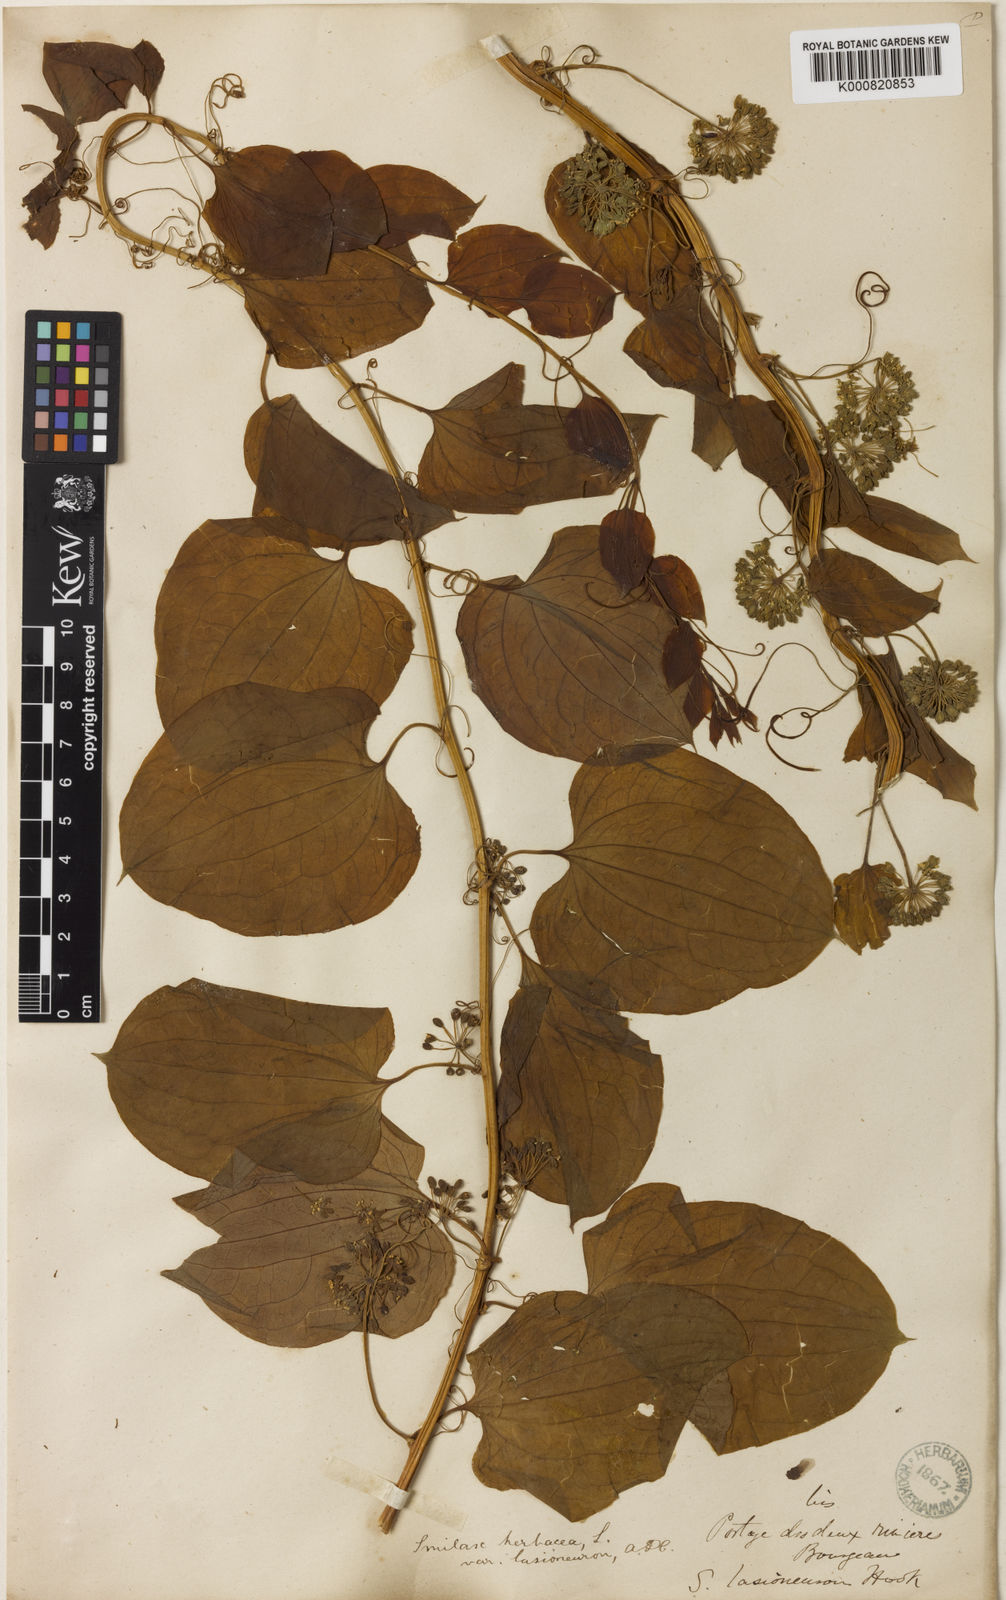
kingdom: Plantae
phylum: Tracheophyta
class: Liliopsida
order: Liliales
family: Smilacaceae
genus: Smilax
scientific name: Smilax lasioneura
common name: Blue ridge carrionflower
